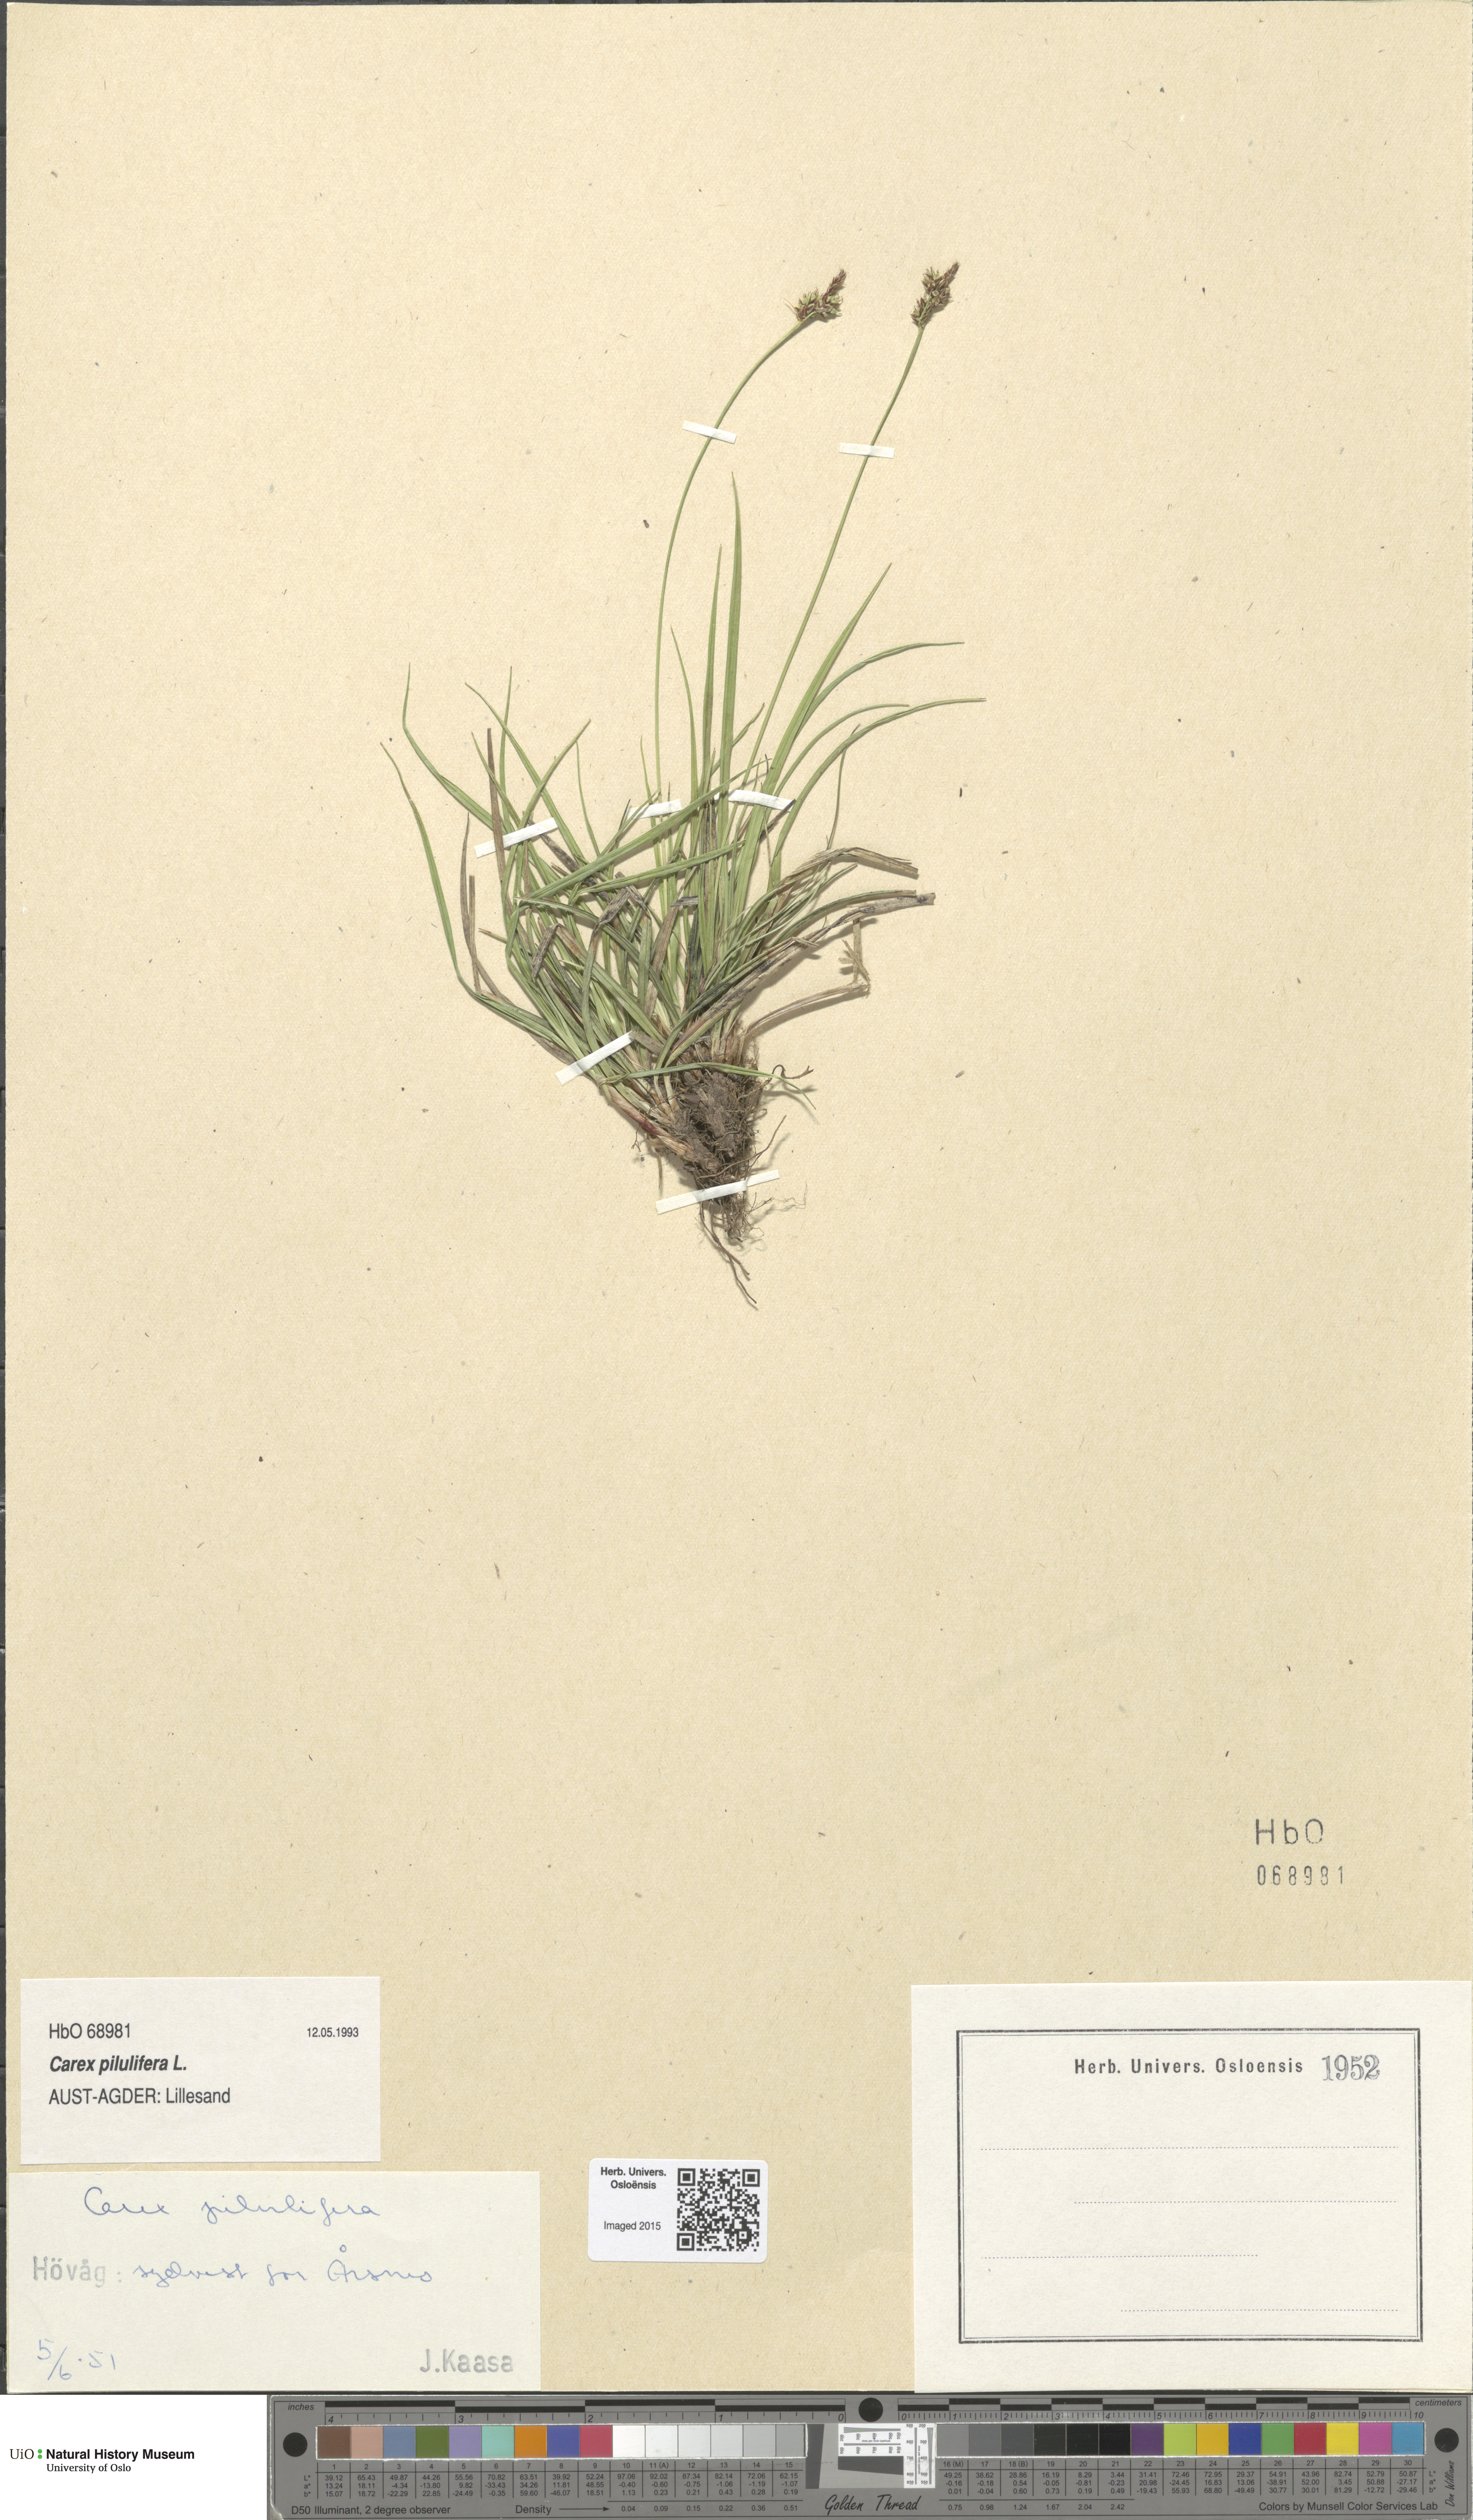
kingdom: Plantae
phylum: Tracheophyta
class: Liliopsida
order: Poales
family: Cyperaceae
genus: Carex
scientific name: Carex pilulifera
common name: Pill sedge
